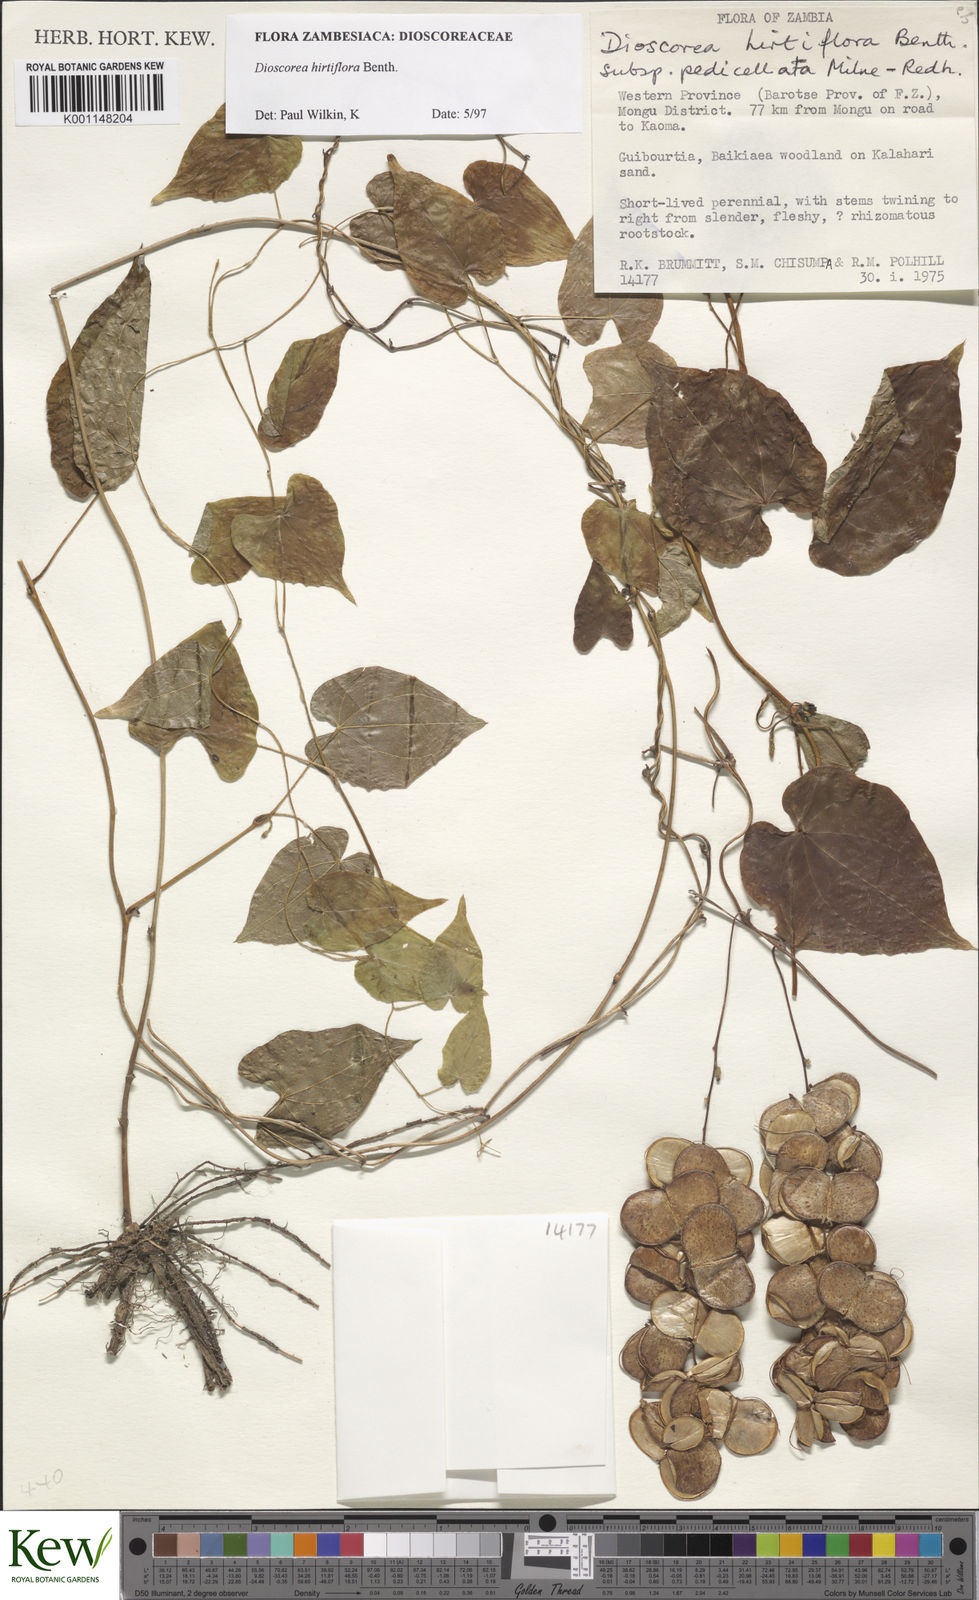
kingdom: Plantae
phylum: Tracheophyta
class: Liliopsida
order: Dioscoreales
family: Dioscoreaceae
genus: Dioscorea
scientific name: Dioscorea hirtiflora
